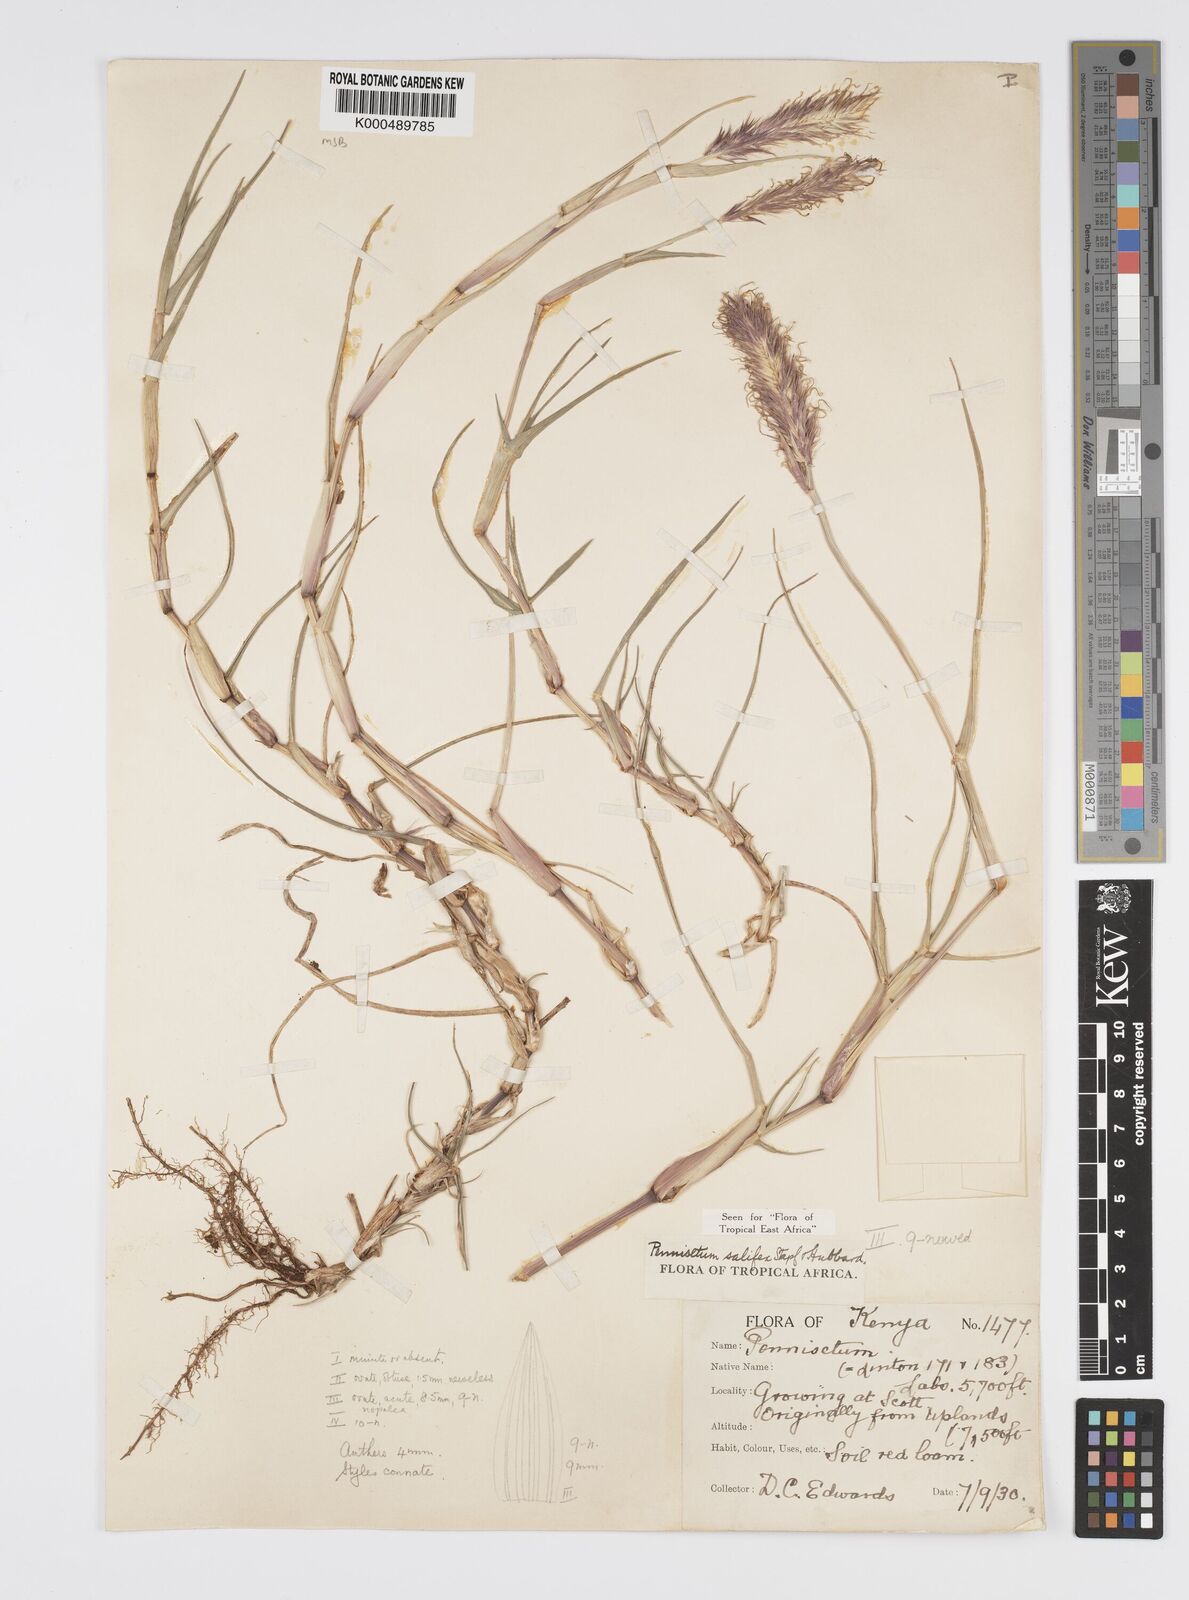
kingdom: Plantae
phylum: Tracheophyta
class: Liliopsida
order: Poales
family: Poaceae
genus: Cenchrus
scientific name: Cenchrus Pennisetum spec
